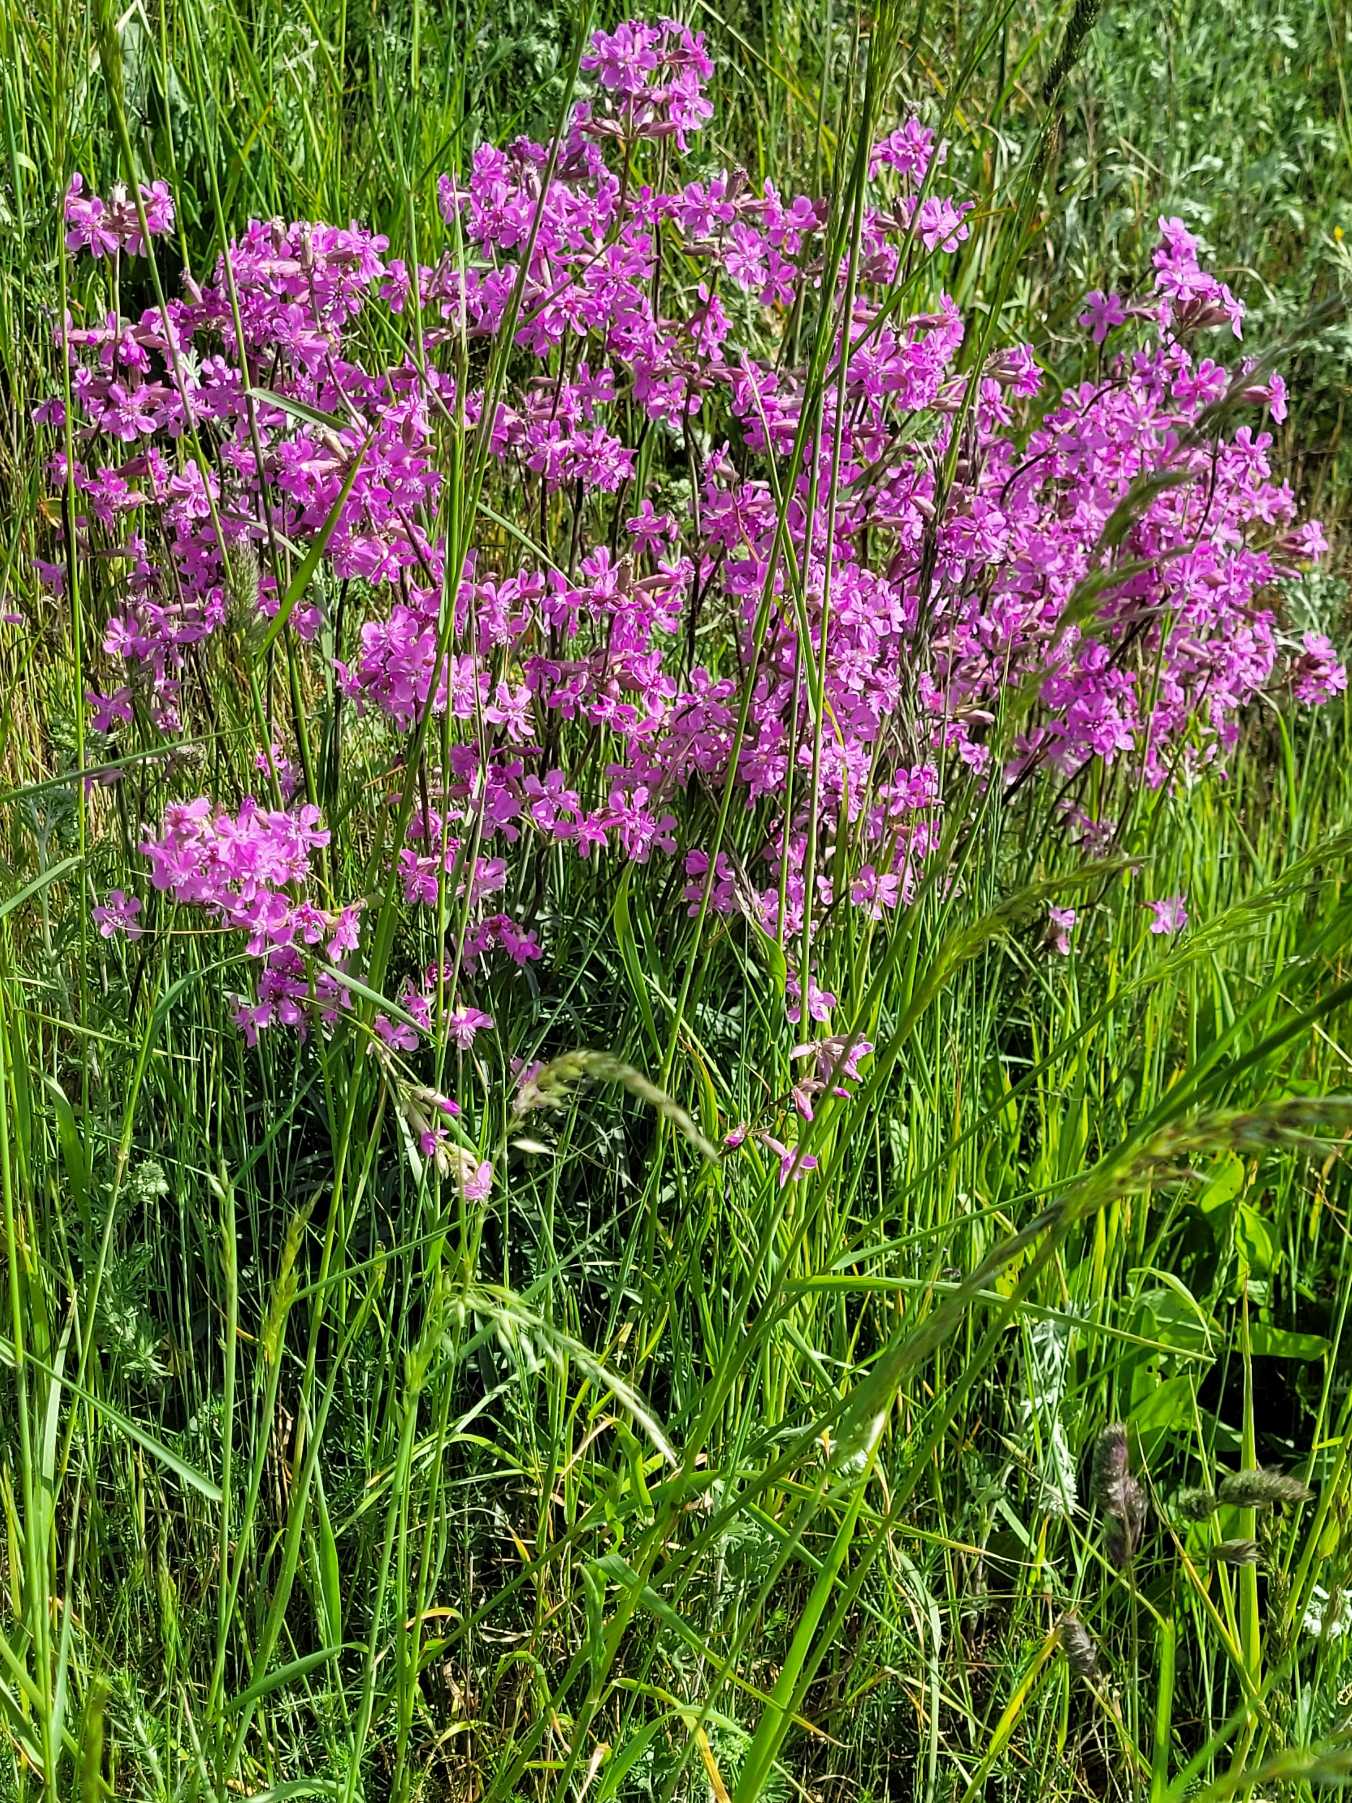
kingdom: Plantae
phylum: Tracheophyta
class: Magnoliopsida
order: Caryophyllales
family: Caryophyllaceae
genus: Viscaria
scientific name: Viscaria vulgaris
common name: Tjærenellike
